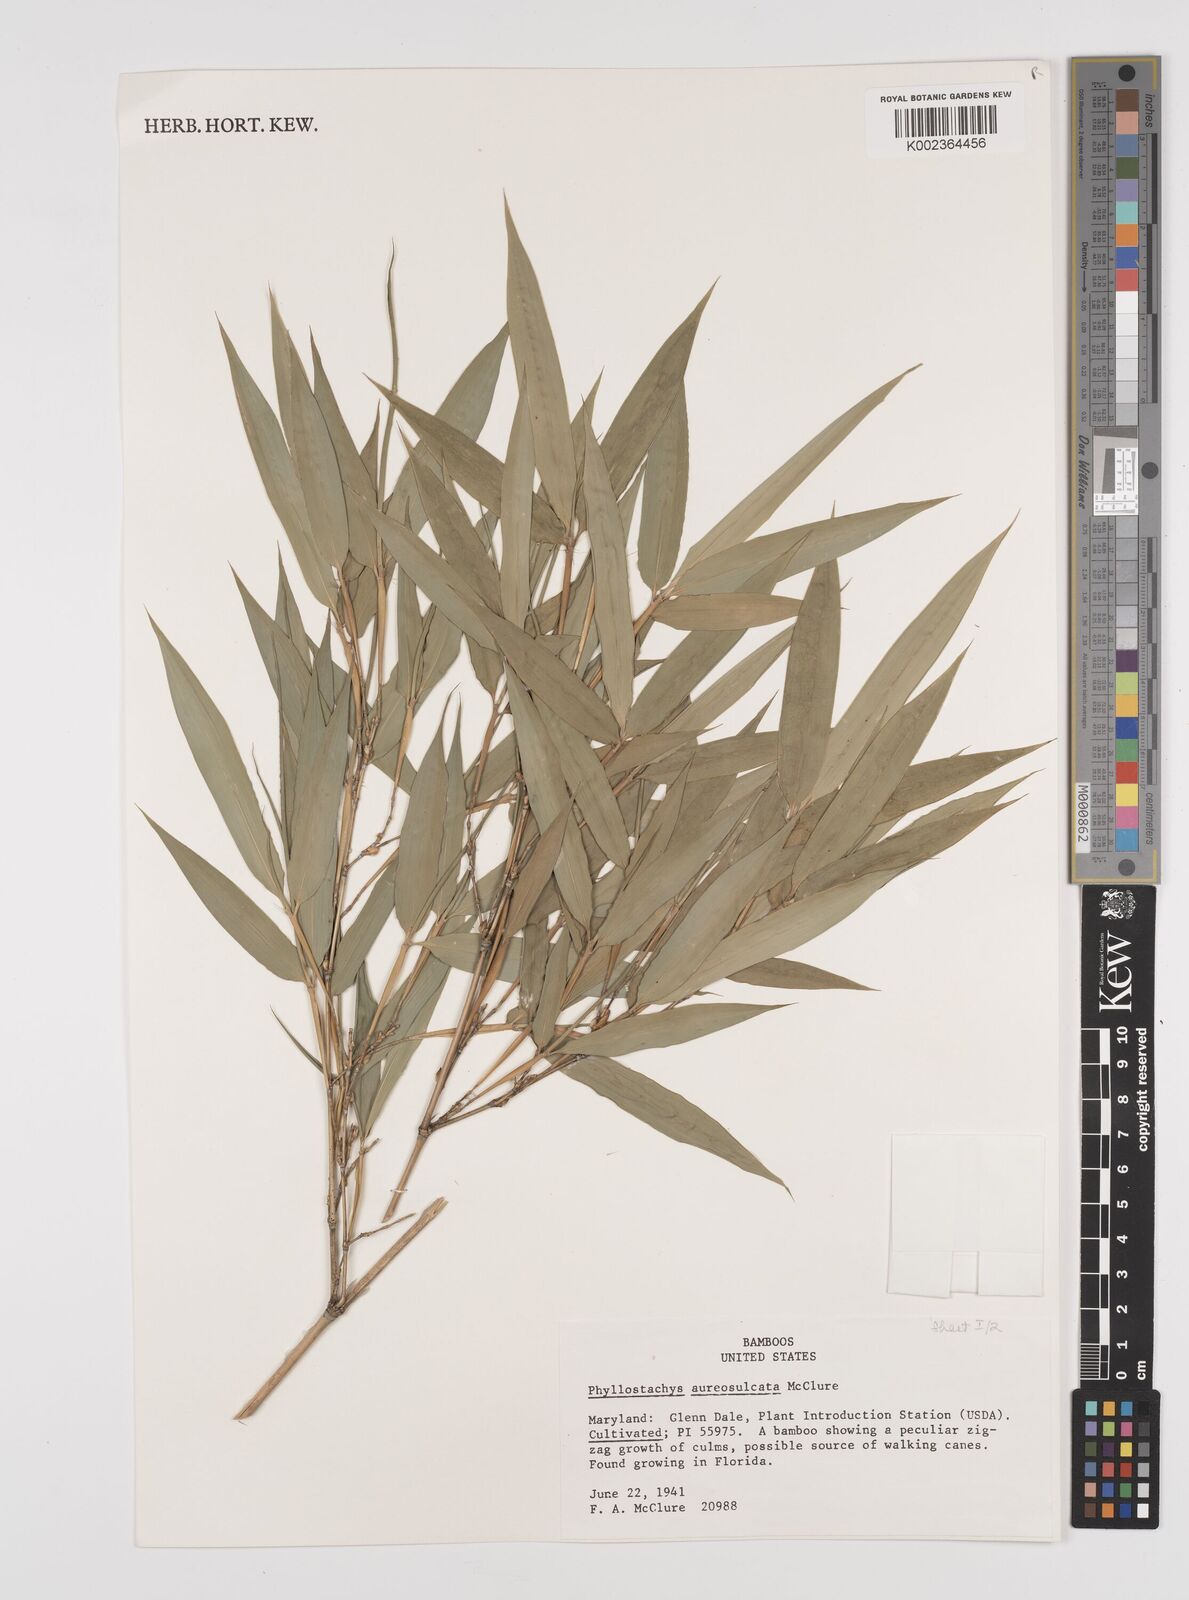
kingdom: Plantae
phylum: Tracheophyta
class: Liliopsida
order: Poales
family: Poaceae
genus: Phyllostachys
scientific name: Phyllostachys aureosulcata
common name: Yellow groove bamboo
